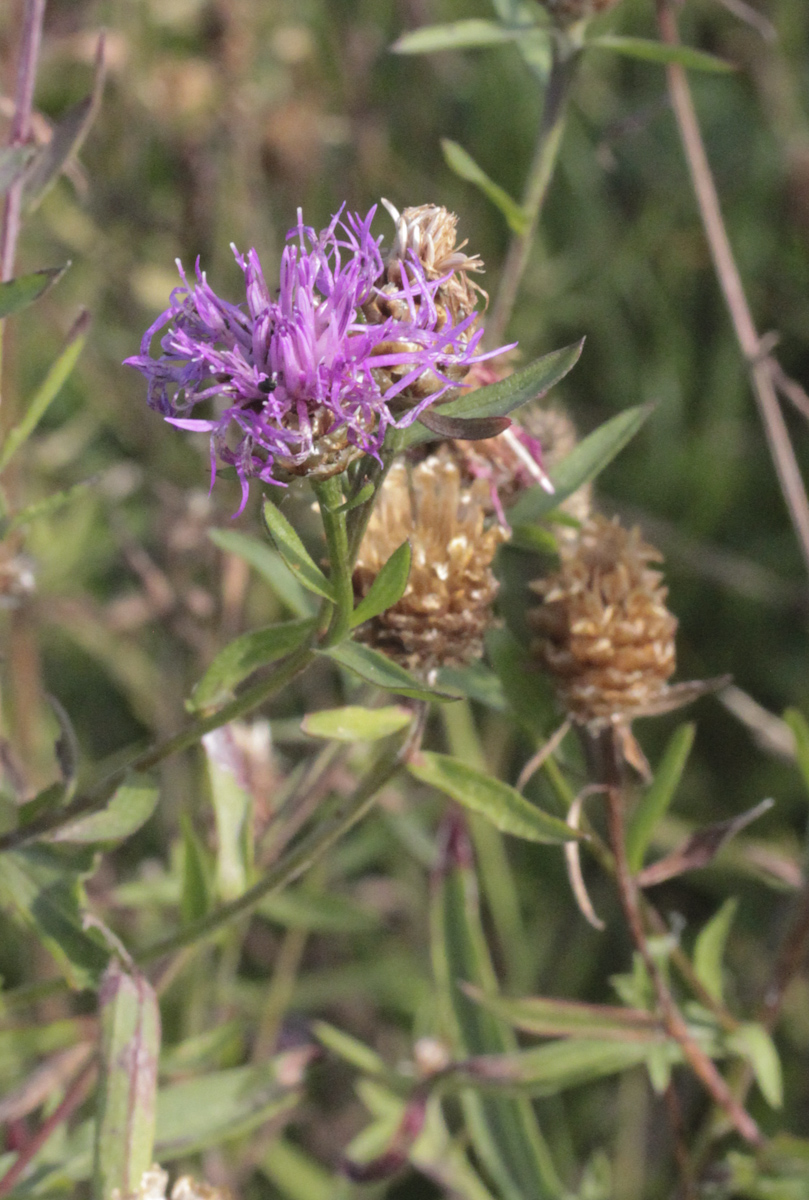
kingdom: Plantae
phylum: Tracheophyta
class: Magnoliopsida
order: Asterales
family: Asteraceae
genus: Centaurea
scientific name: Centaurea jacea
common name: Brown knapweed
